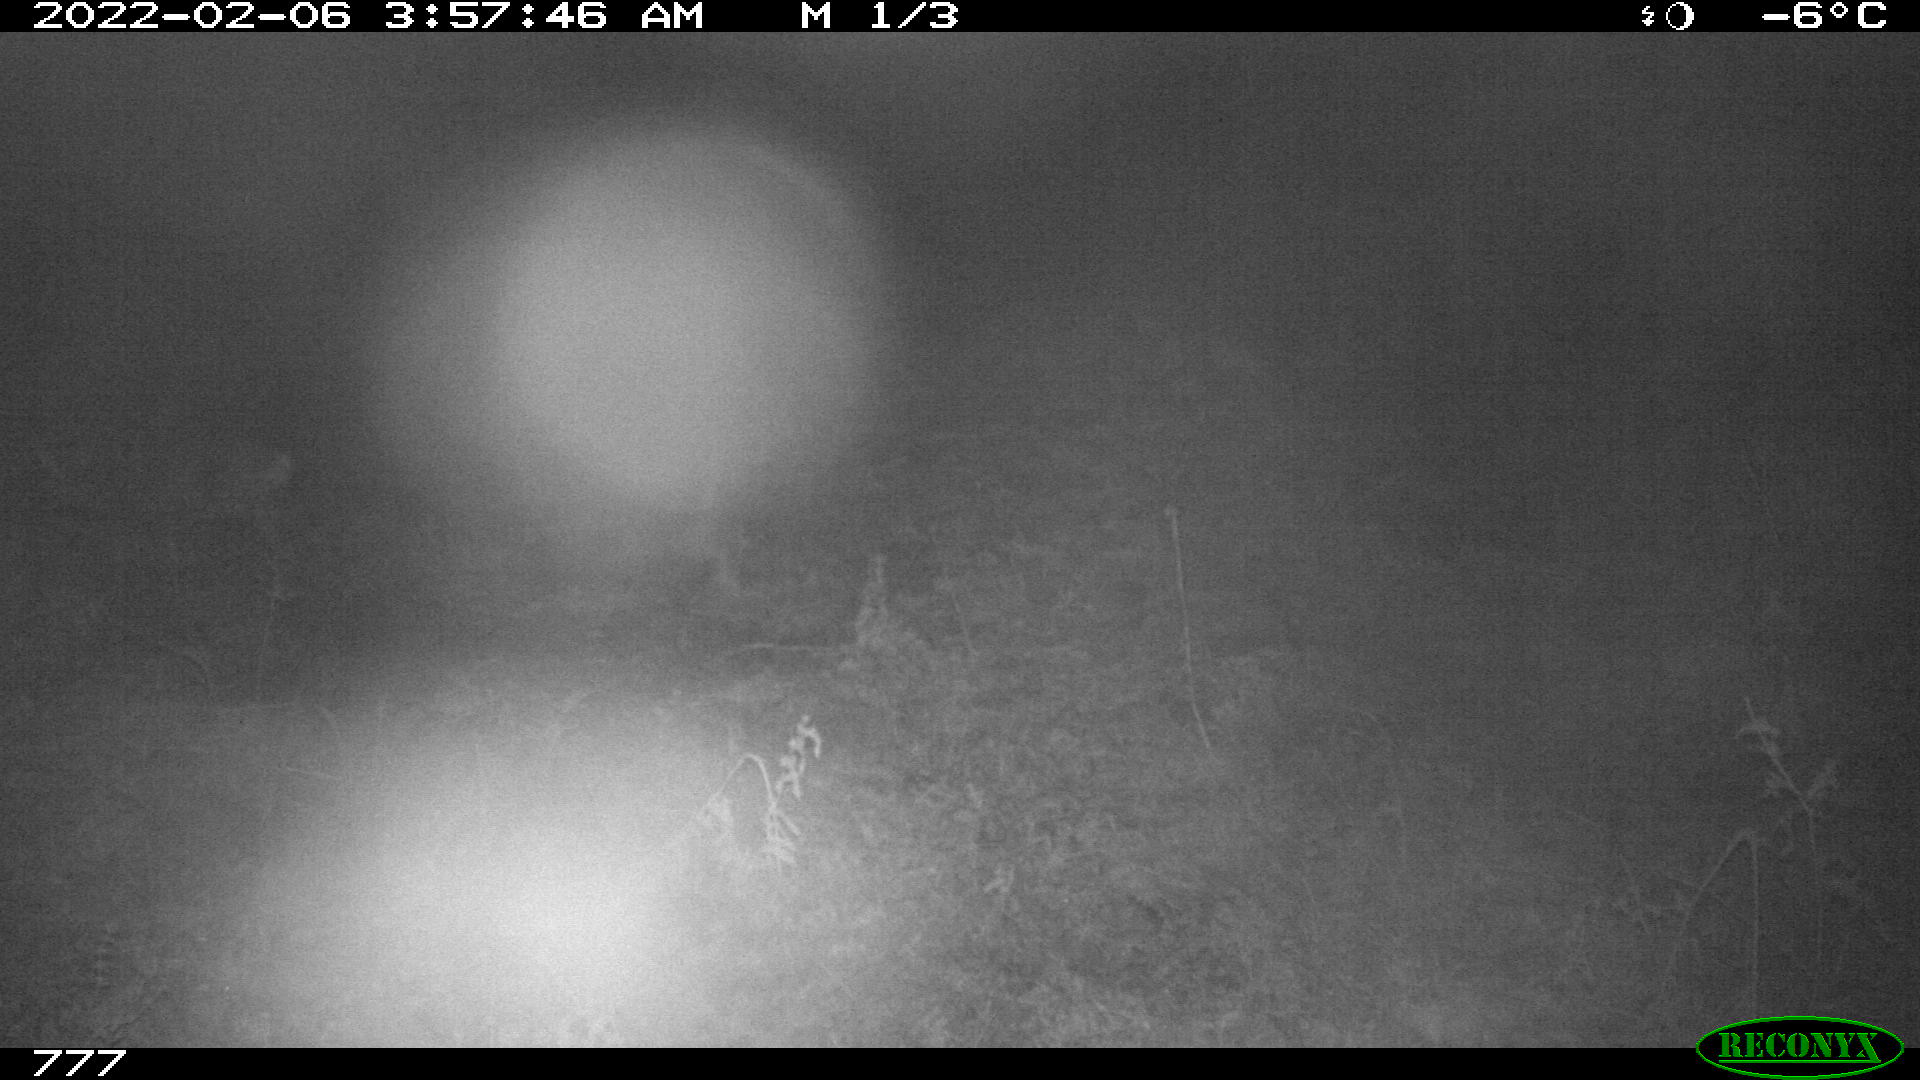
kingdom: Animalia
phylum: Chordata
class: Mammalia
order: Artiodactyla
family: Cervidae
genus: Capreolus
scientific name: Capreolus capreolus
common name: Western roe deer
